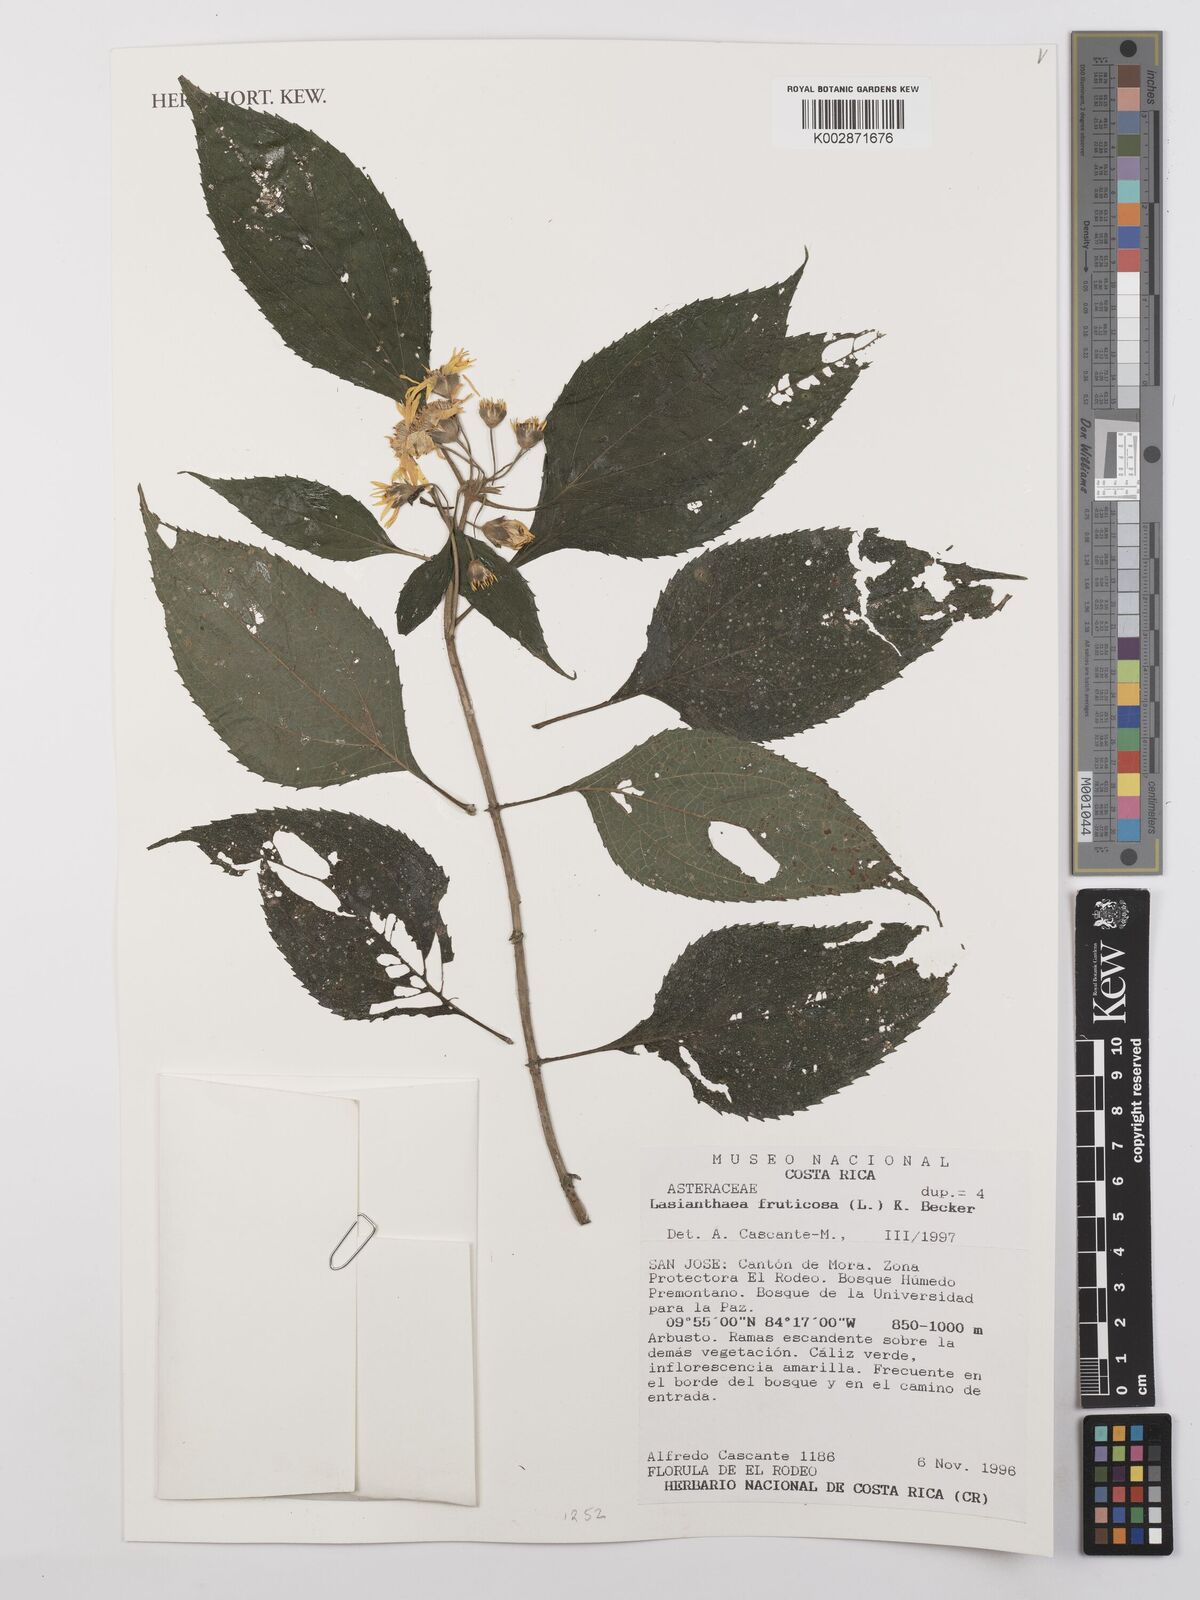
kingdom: Plantae
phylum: Tracheophyta
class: Magnoliopsida
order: Asterales
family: Asteraceae
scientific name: Asteraceae
